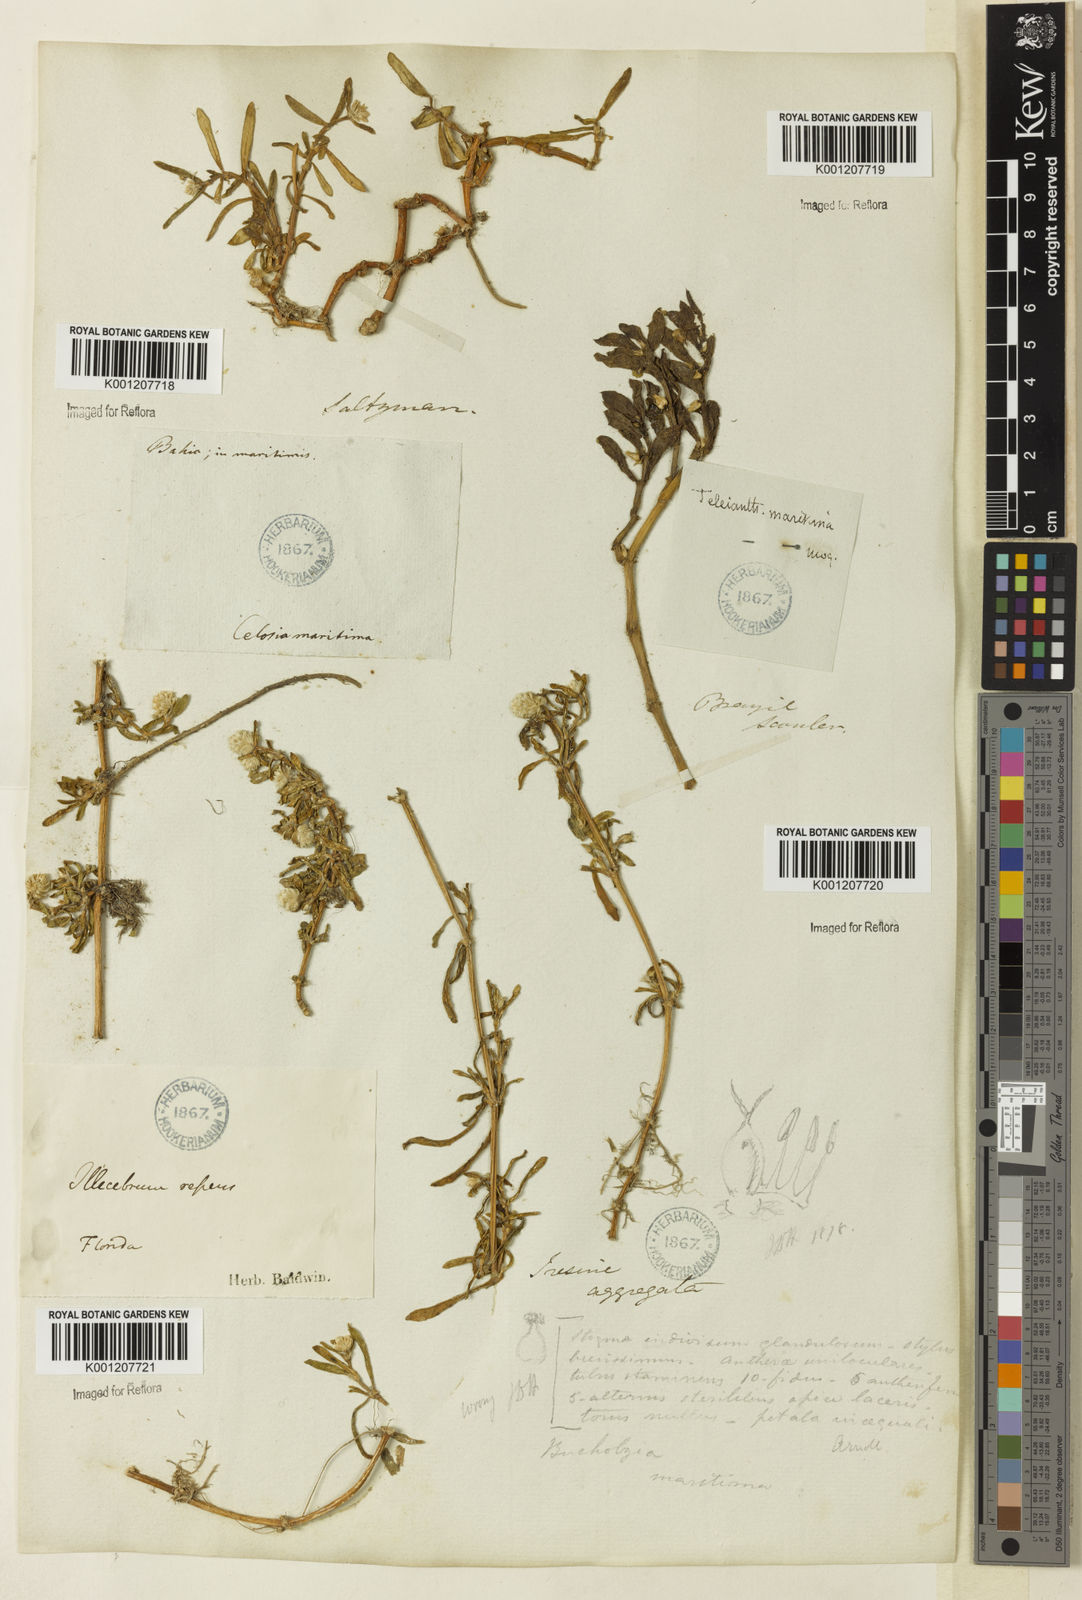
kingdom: Plantae
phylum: Tracheophyta
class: Magnoliopsida
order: Caryophyllales
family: Amaranthaceae
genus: Gomphrena
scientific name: Gomphrena vermicularis
